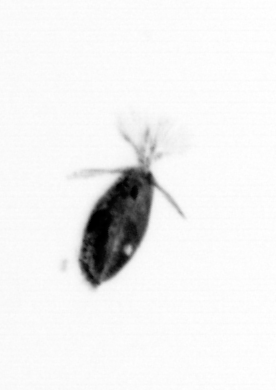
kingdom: Animalia
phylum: Arthropoda
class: Copepoda
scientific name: Copepoda
